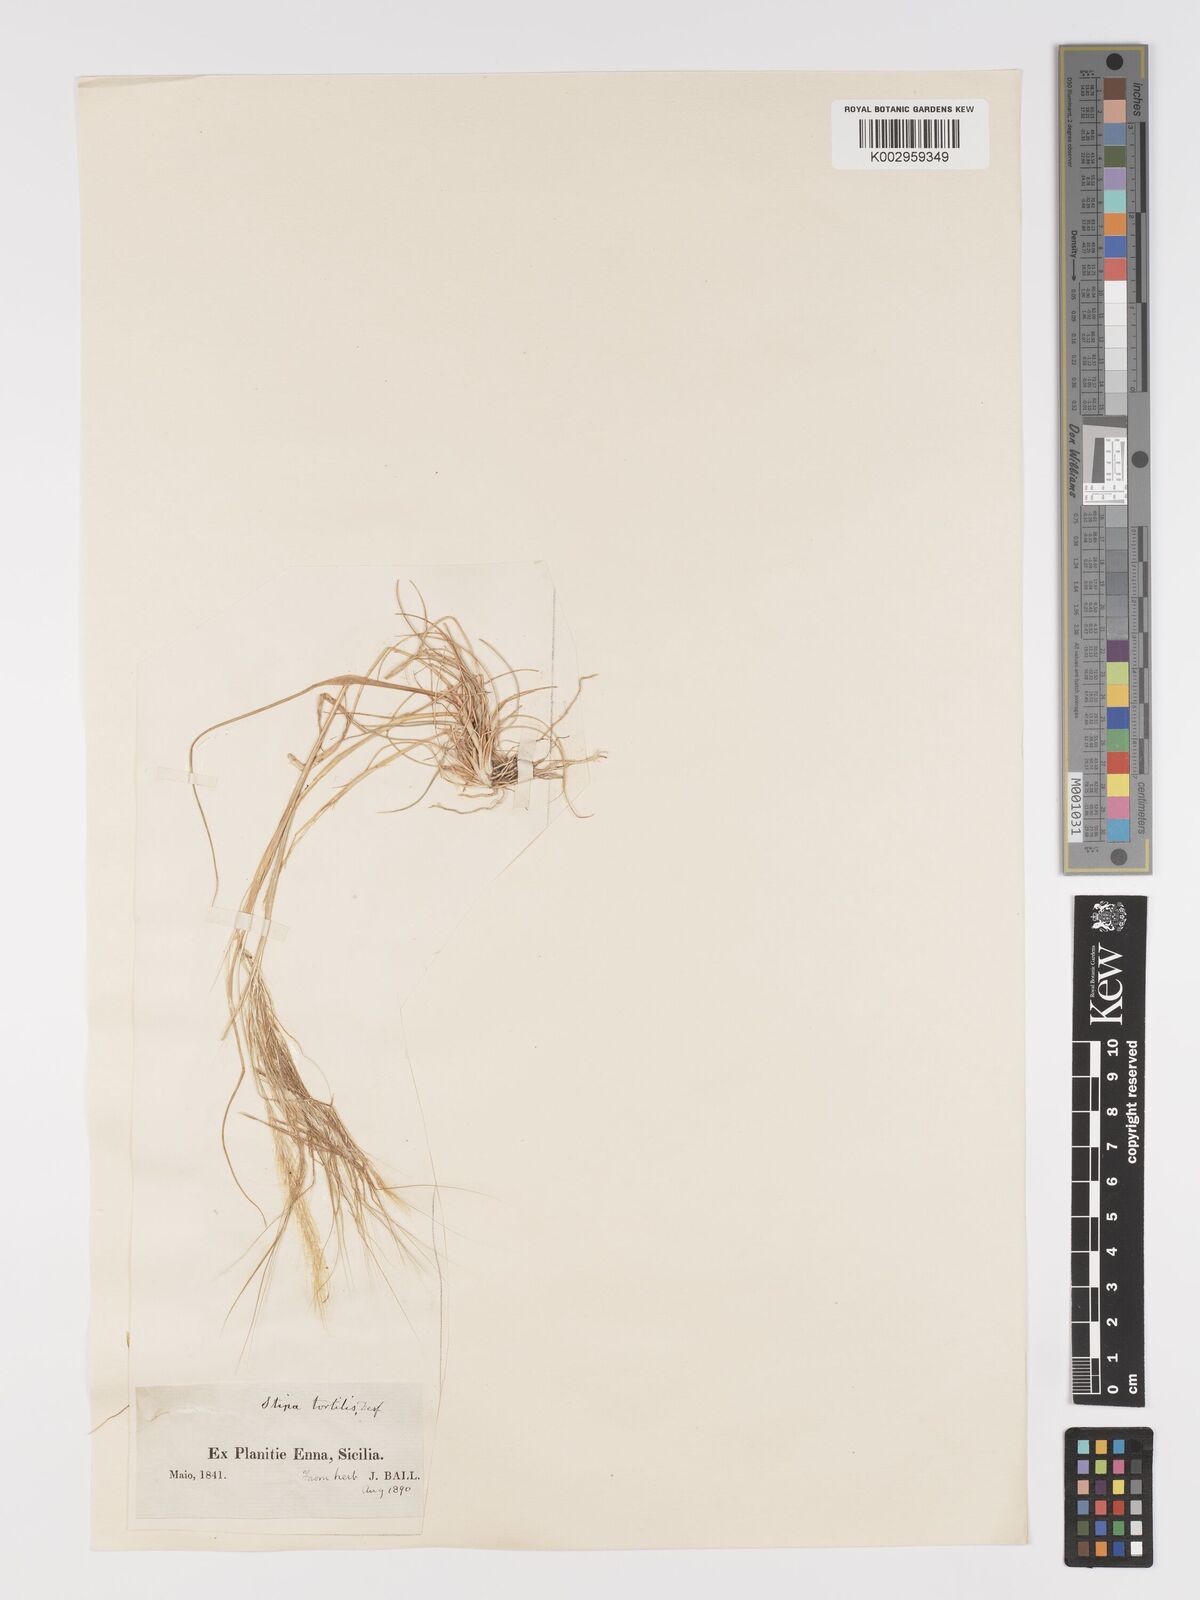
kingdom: Plantae
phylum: Tracheophyta
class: Liliopsida
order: Poales
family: Poaceae
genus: Stipellula
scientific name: Stipellula capensis
